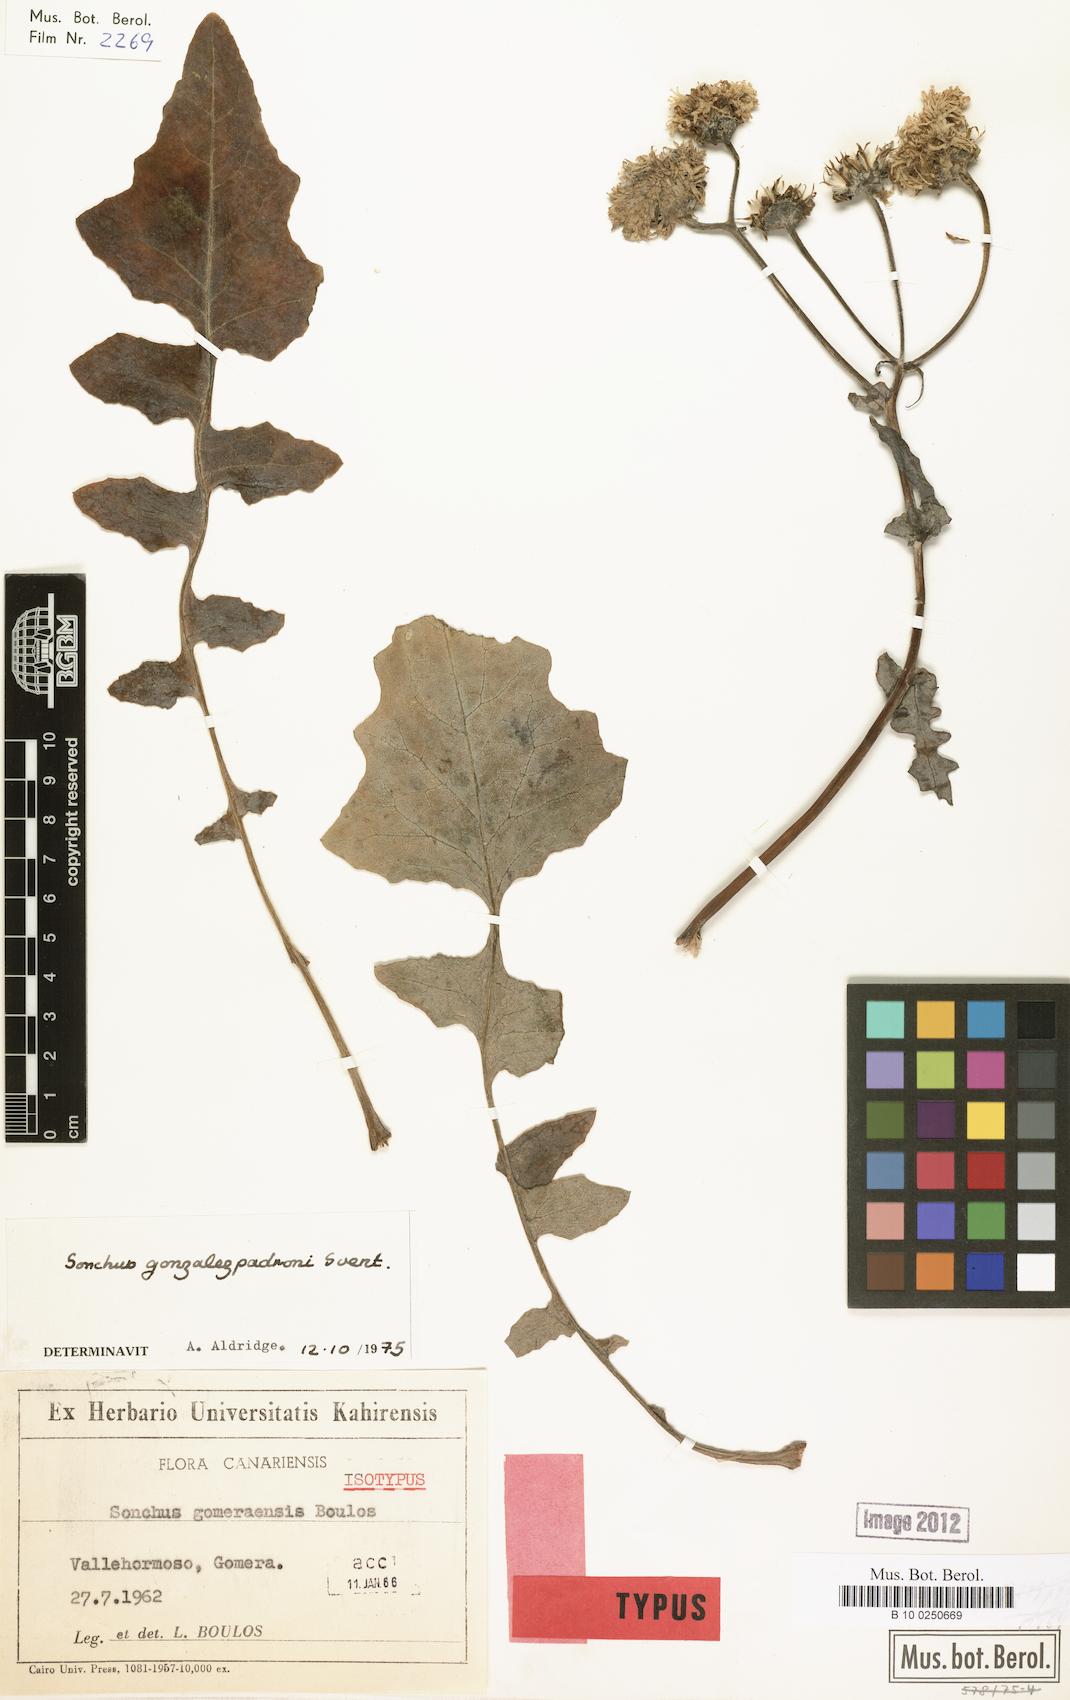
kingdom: Plantae
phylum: Tracheophyta
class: Magnoliopsida
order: Asterales
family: Asteraceae
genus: Sonchus
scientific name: Sonchus gomerensis
